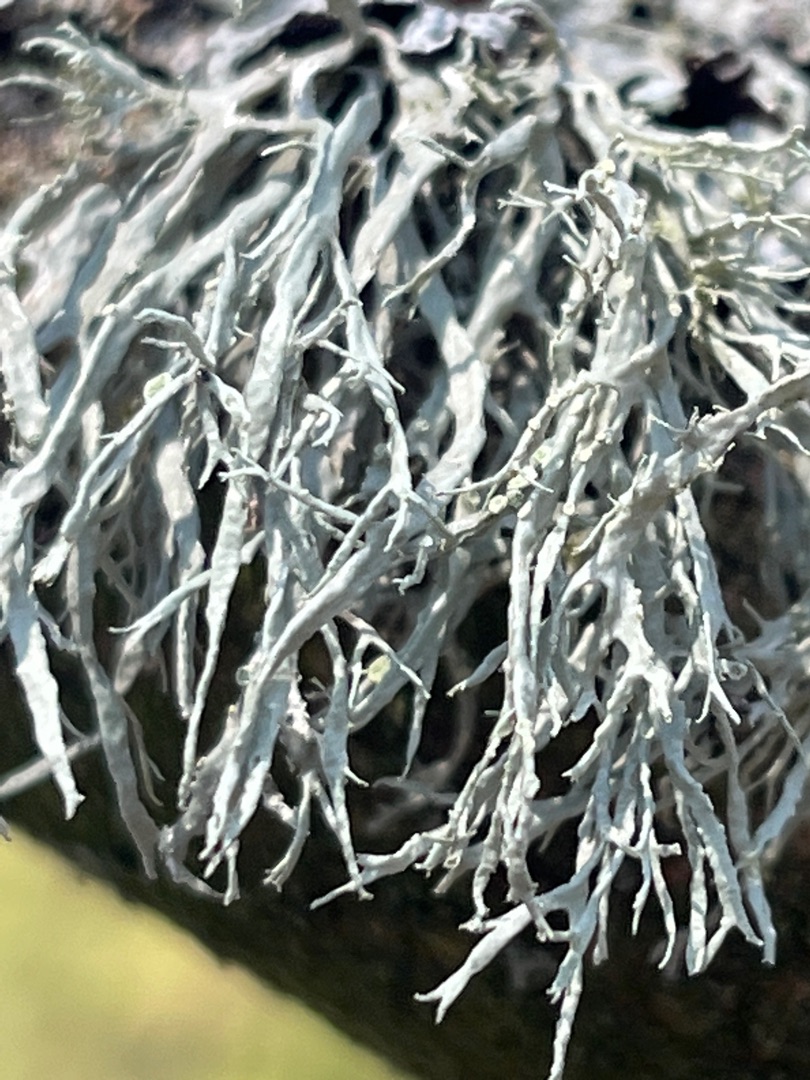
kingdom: Fungi
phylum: Ascomycota
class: Lecanoromycetes
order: Lecanorales
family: Ramalinaceae
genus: Ramalina
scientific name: Ramalina farinacea
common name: Melet grenlav
